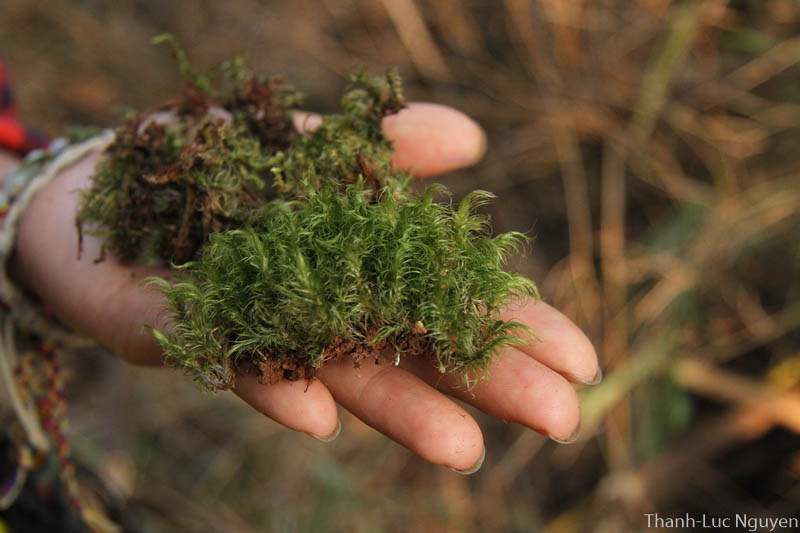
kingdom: Plantae
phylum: Bryophyta
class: Bryopsida
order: Dicranales
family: Dicranaceae
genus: Dicranoloma
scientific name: Dicranoloma
